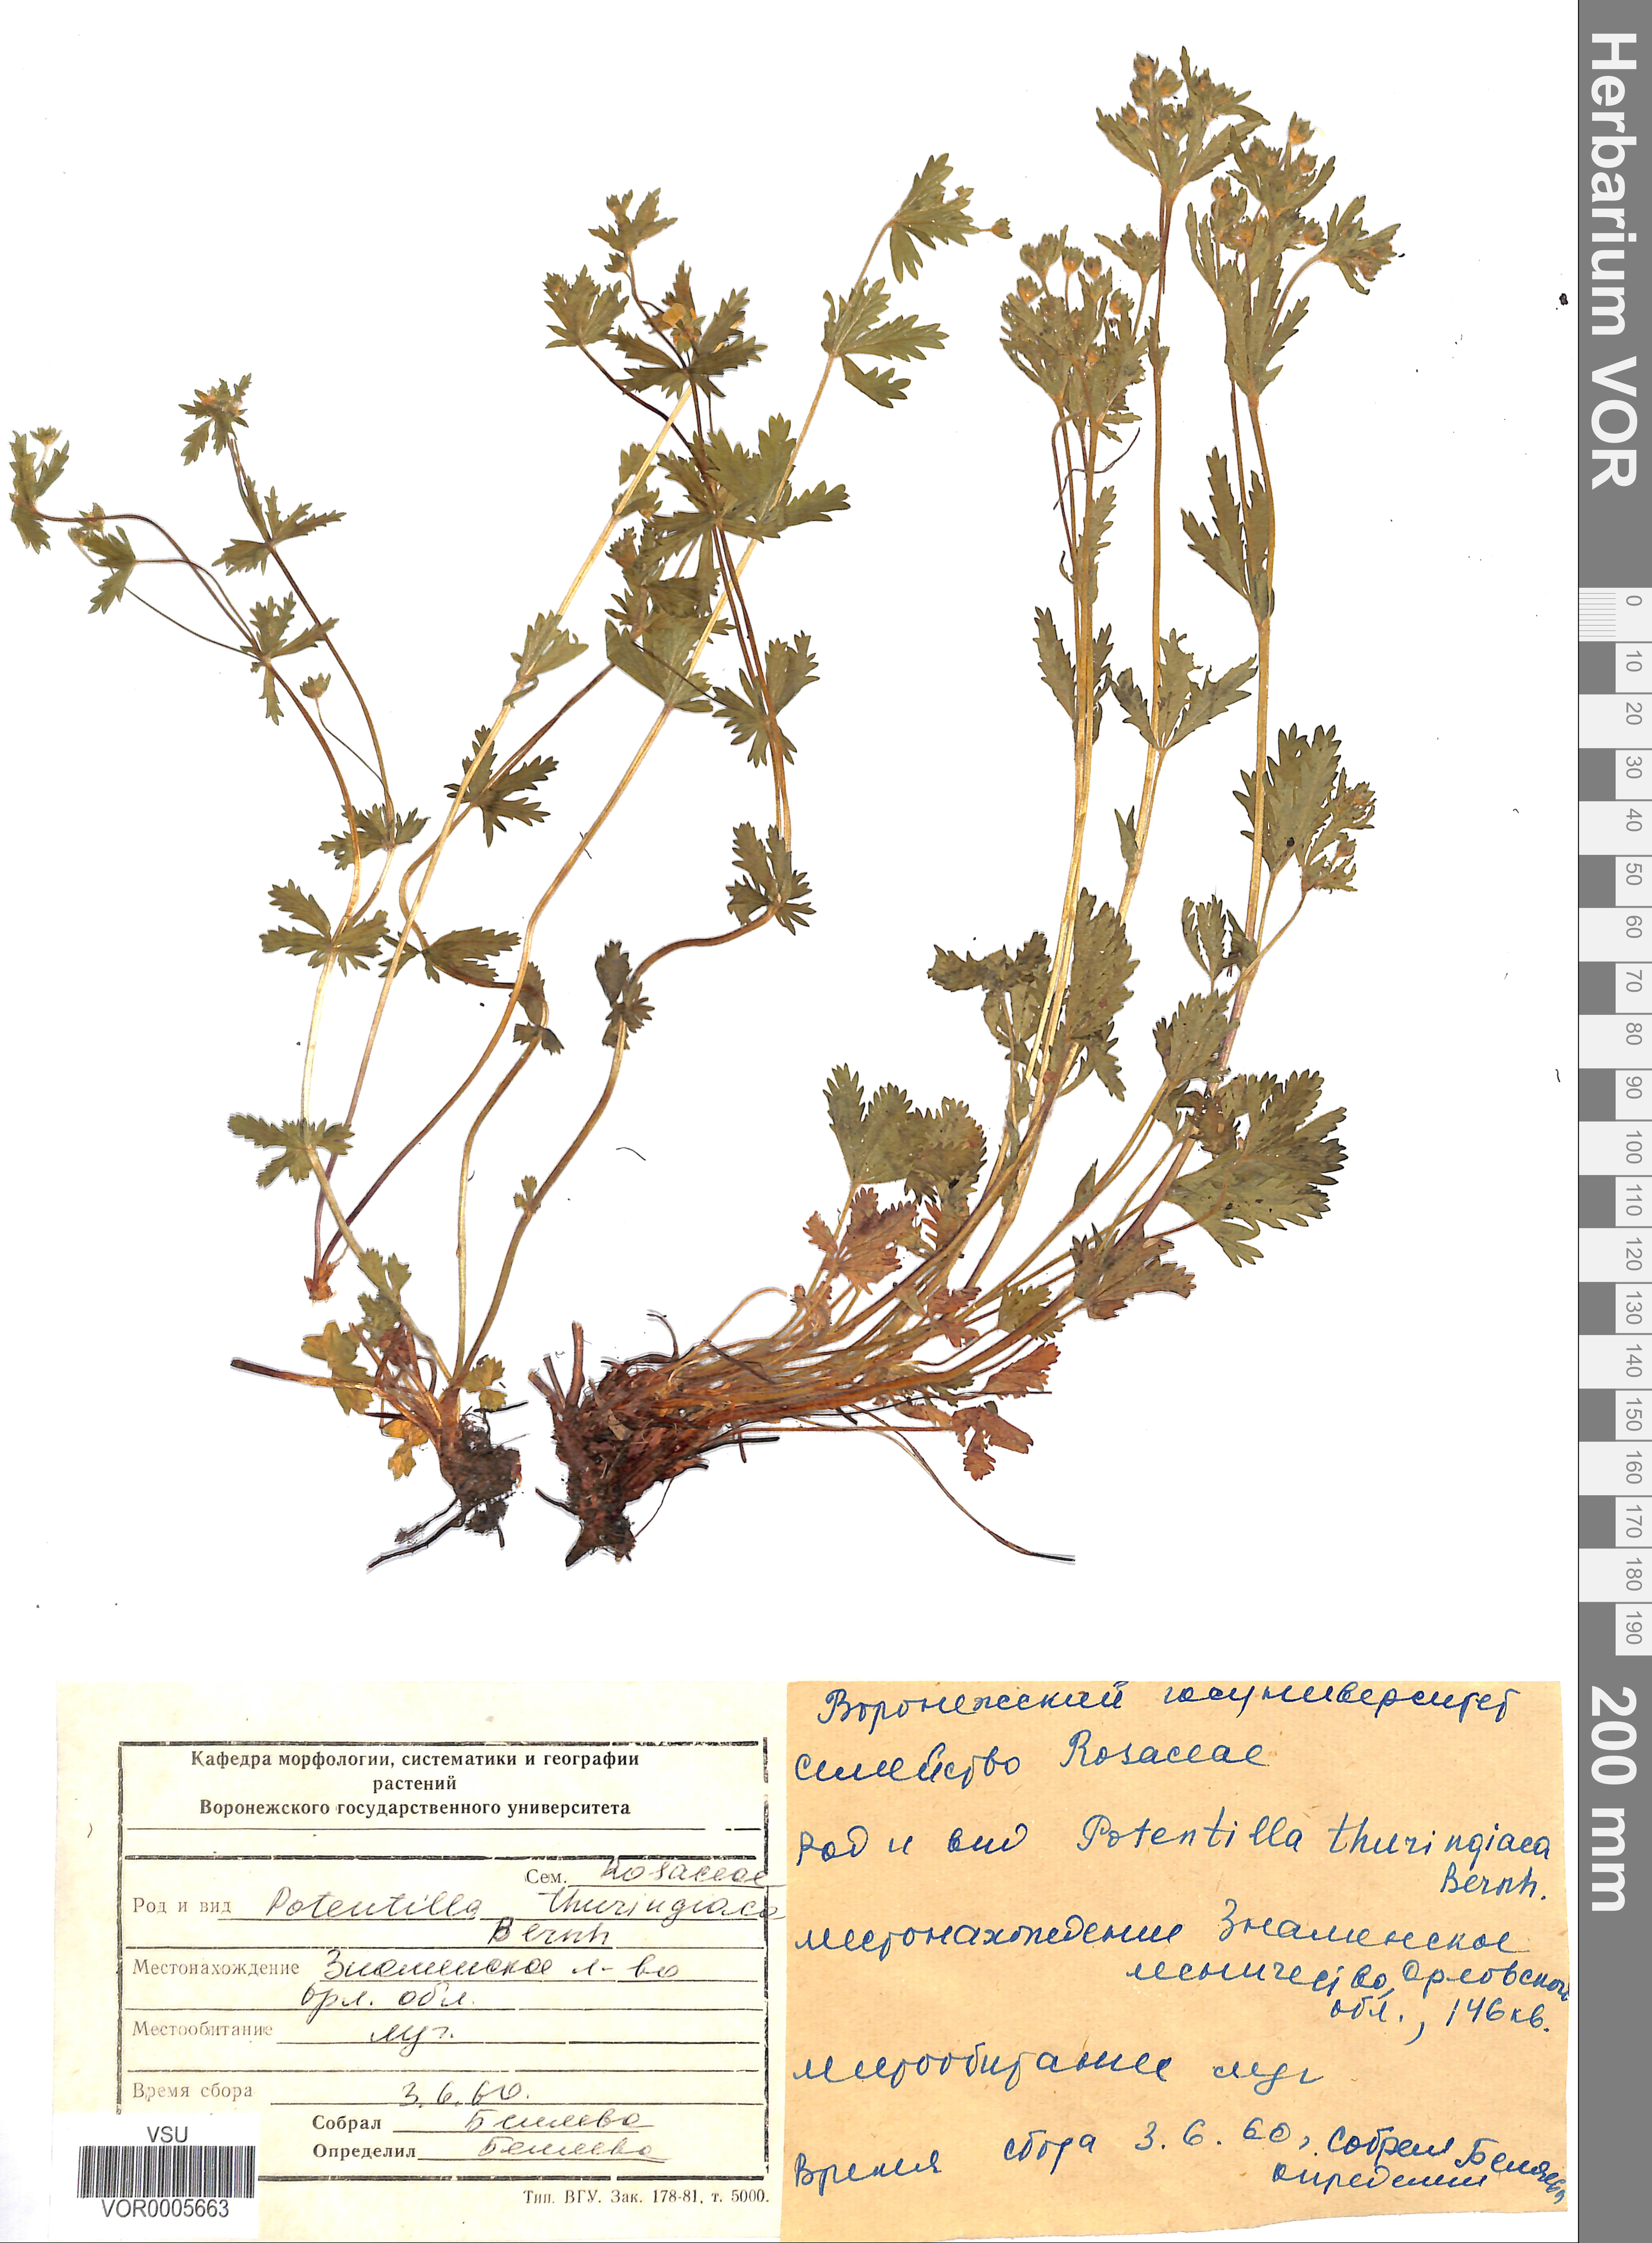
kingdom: Plantae
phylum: Tracheophyta
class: Magnoliopsida
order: Rosales
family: Rosaceae
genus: Potentilla
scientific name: Potentilla thuringiaca
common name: European cinquefoil
